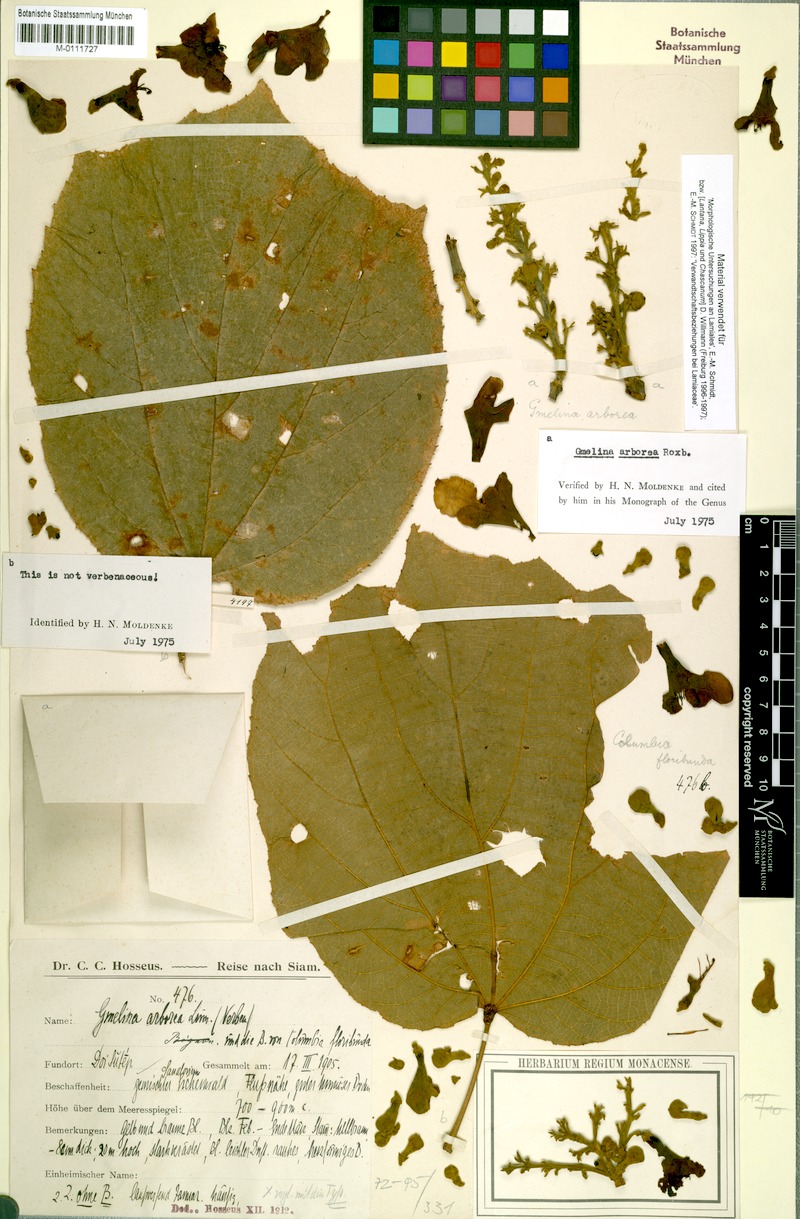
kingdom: Plantae
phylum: Tracheophyta
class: Magnoliopsida
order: Lamiales
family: Lamiaceae
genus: Gmelina
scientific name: Gmelina arborea
